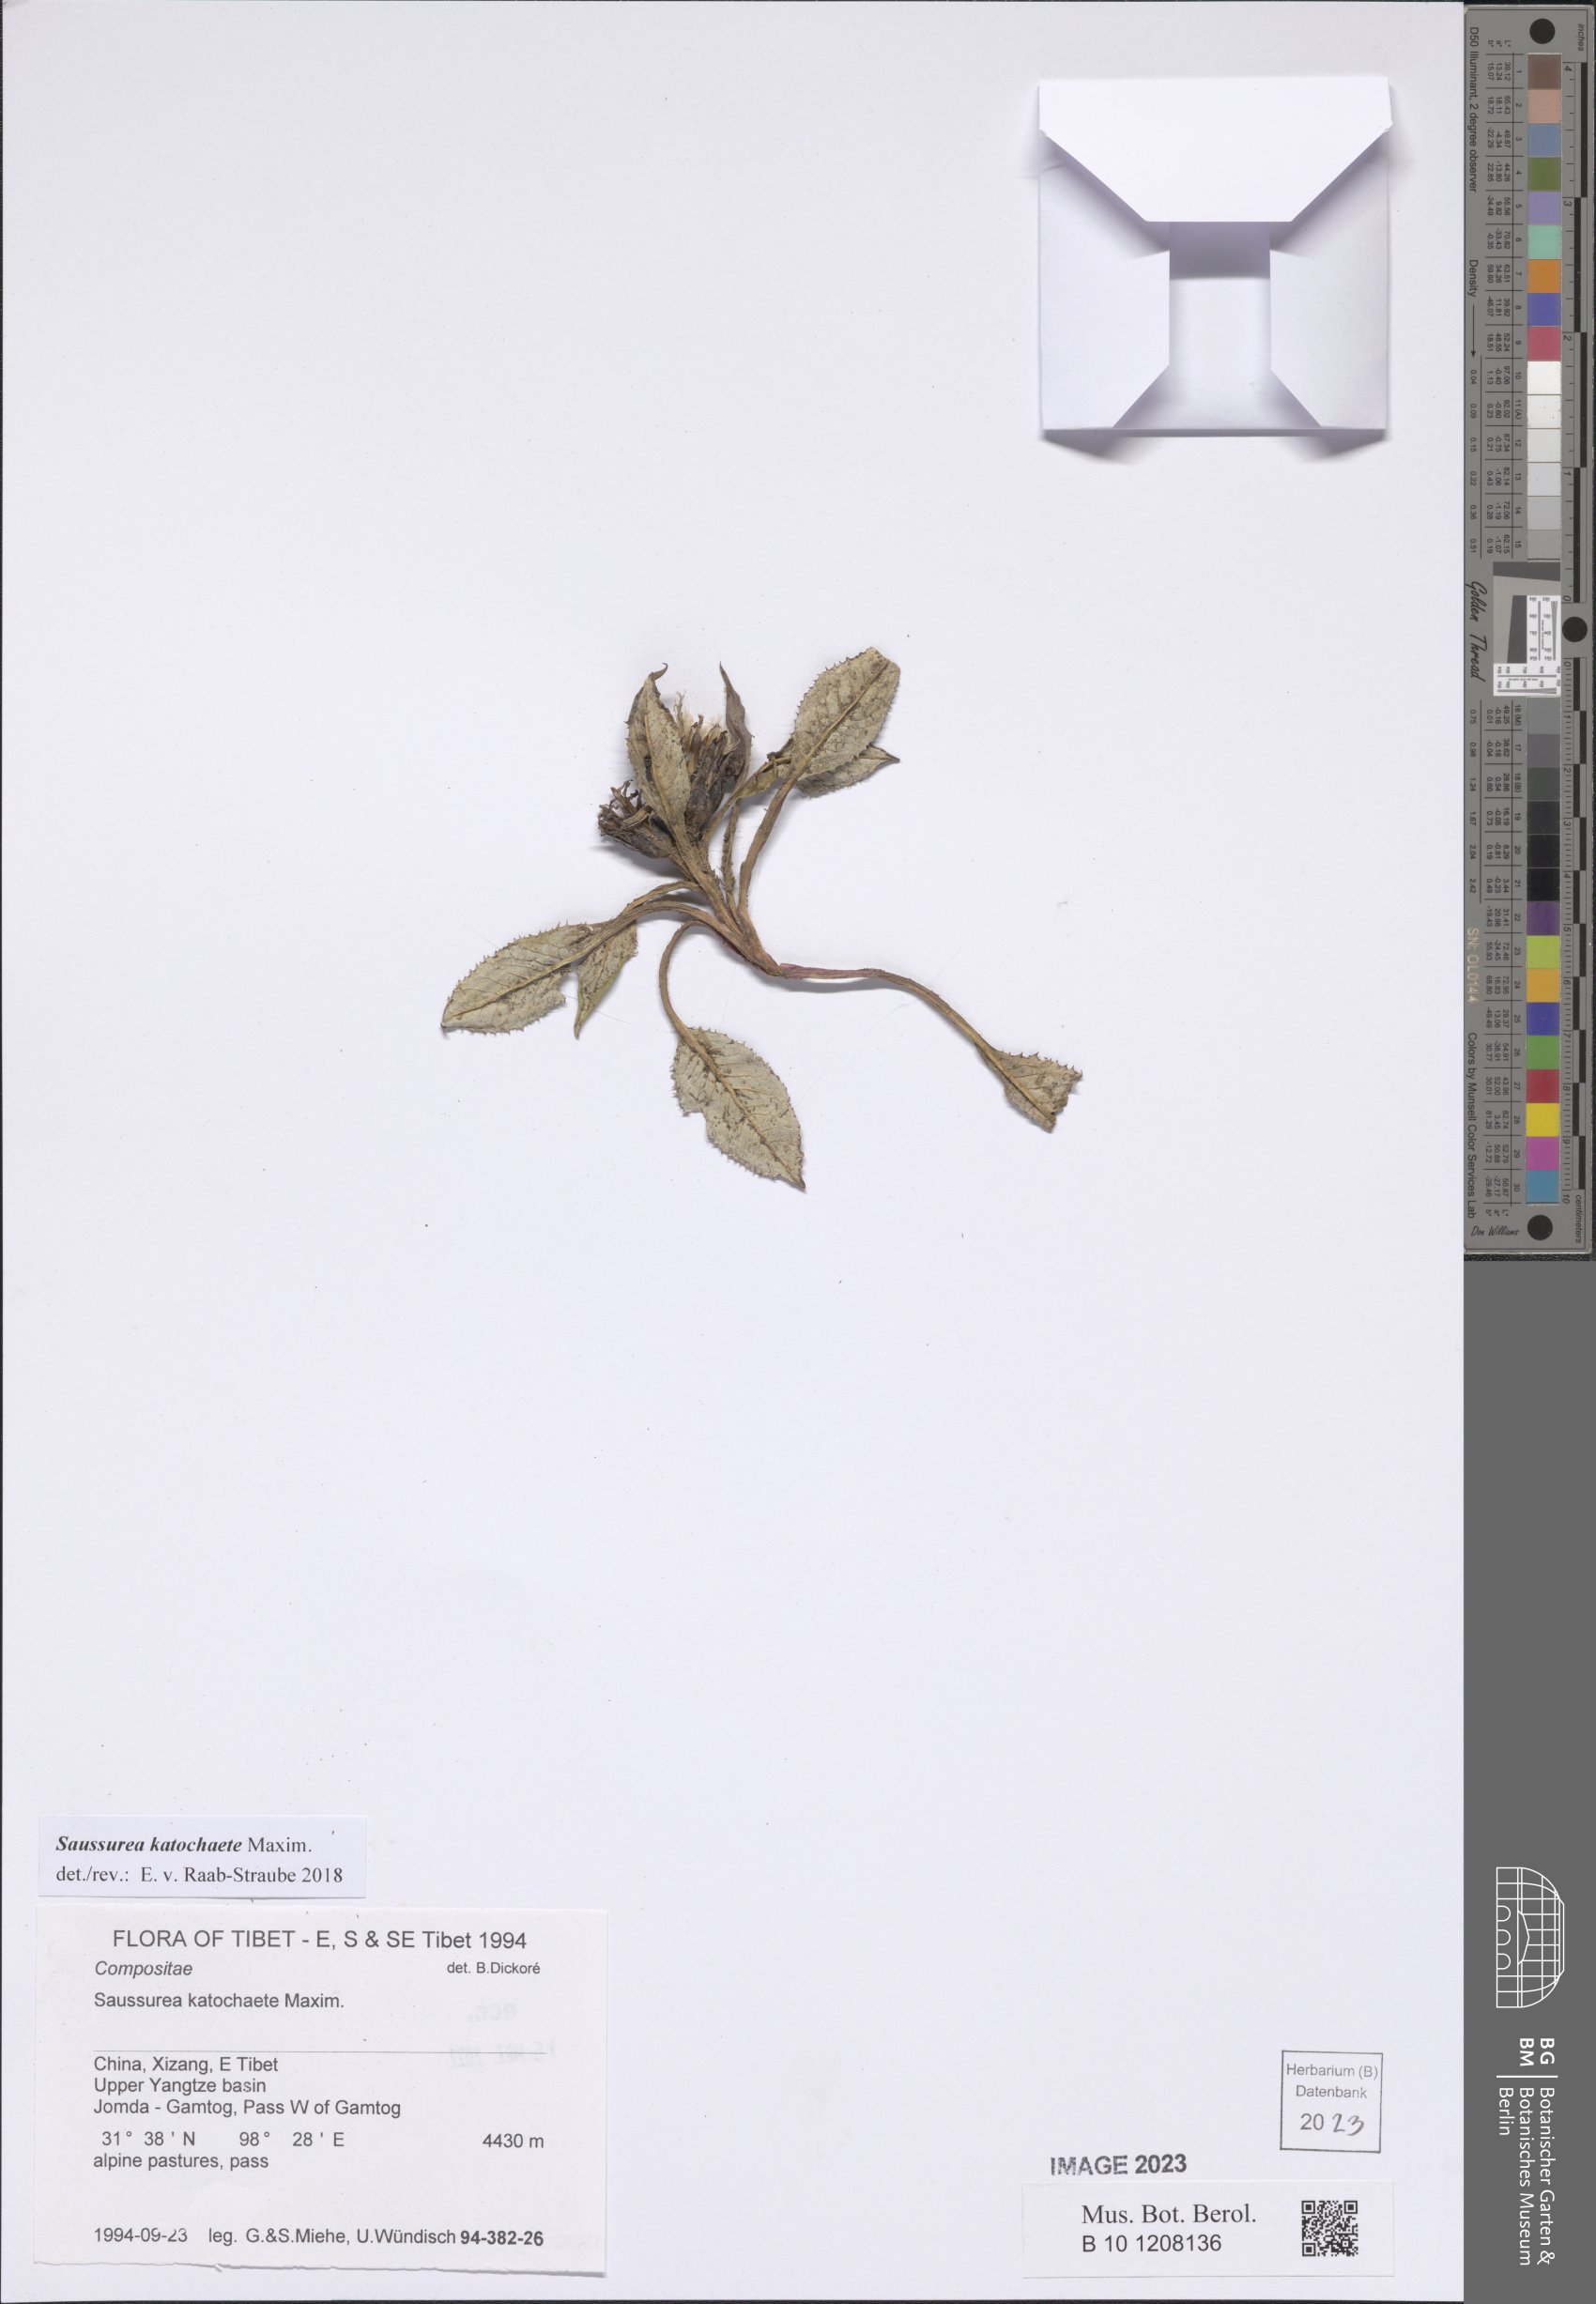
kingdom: Plantae
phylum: Tracheophyta
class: Magnoliopsida
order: Asterales
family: Asteraceae
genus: Saussurea
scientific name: Saussurea katochaete
